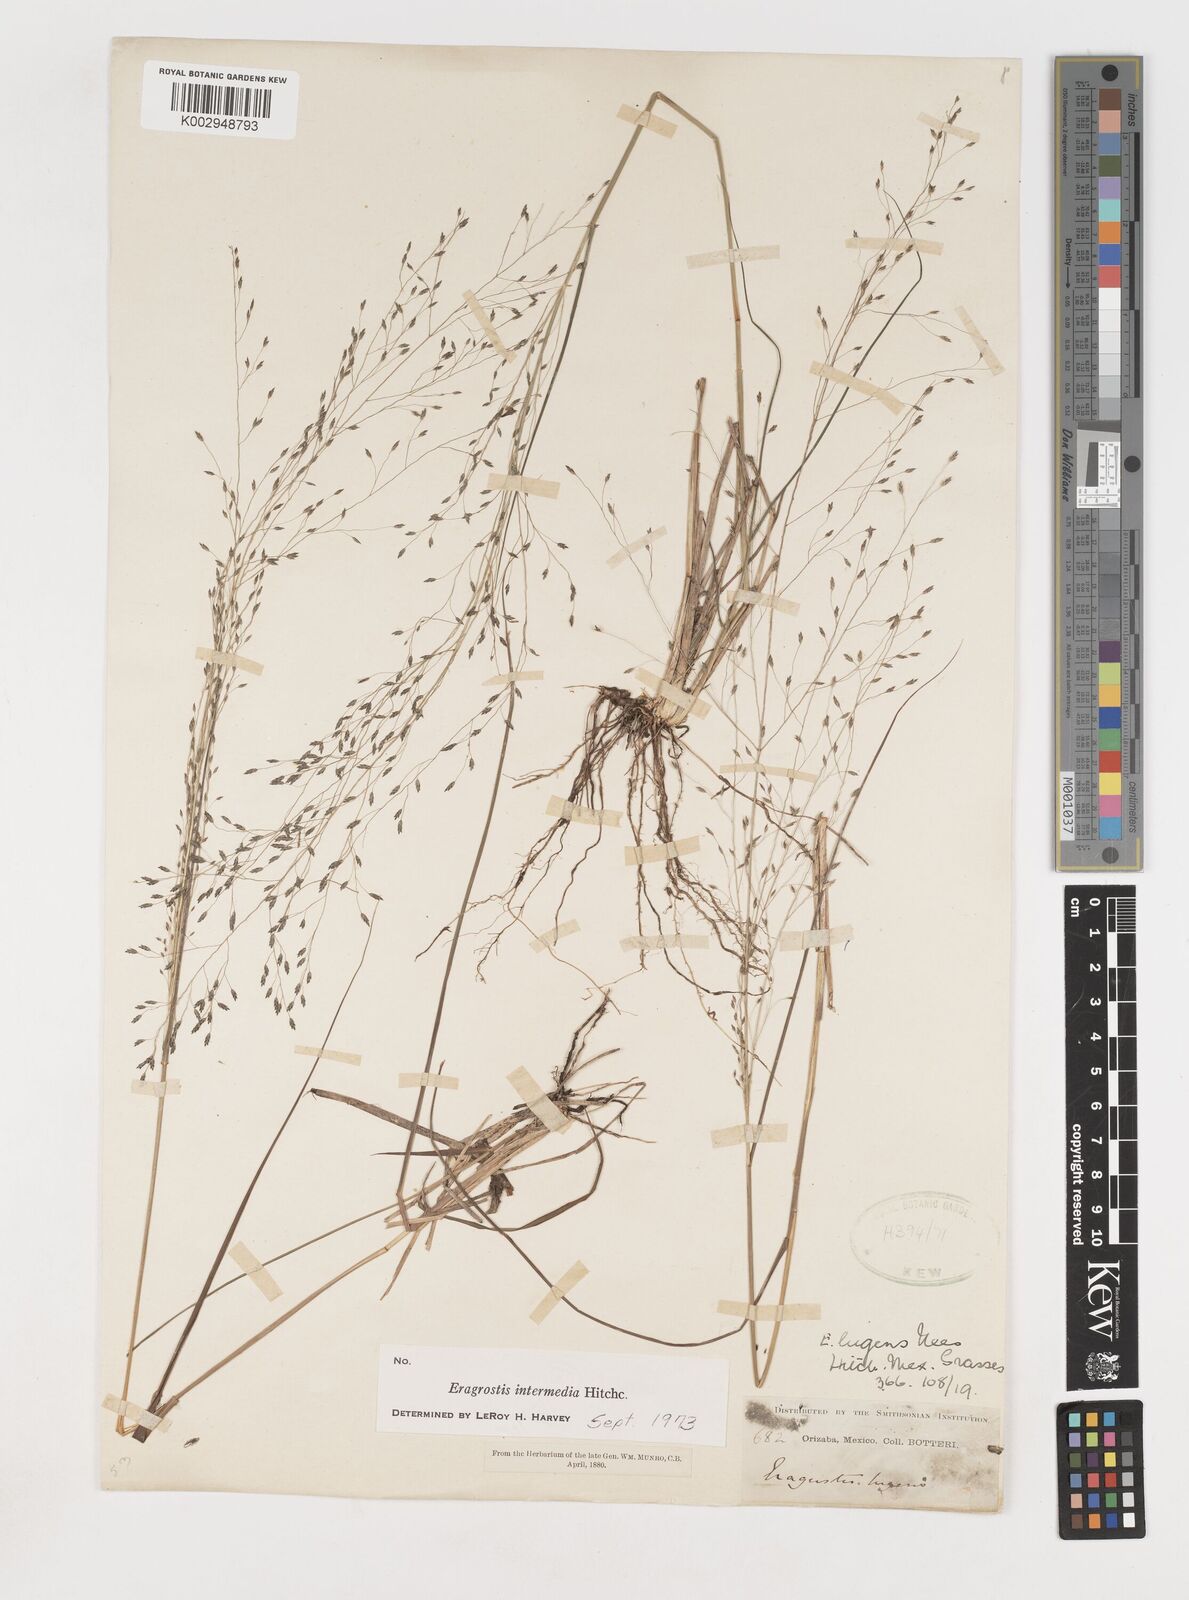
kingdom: Plantae
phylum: Tracheophyta
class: Liliopsida
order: Poales
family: Poaceae
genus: Eragrostis
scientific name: Eragrostis intermedia
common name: Plains love grass
